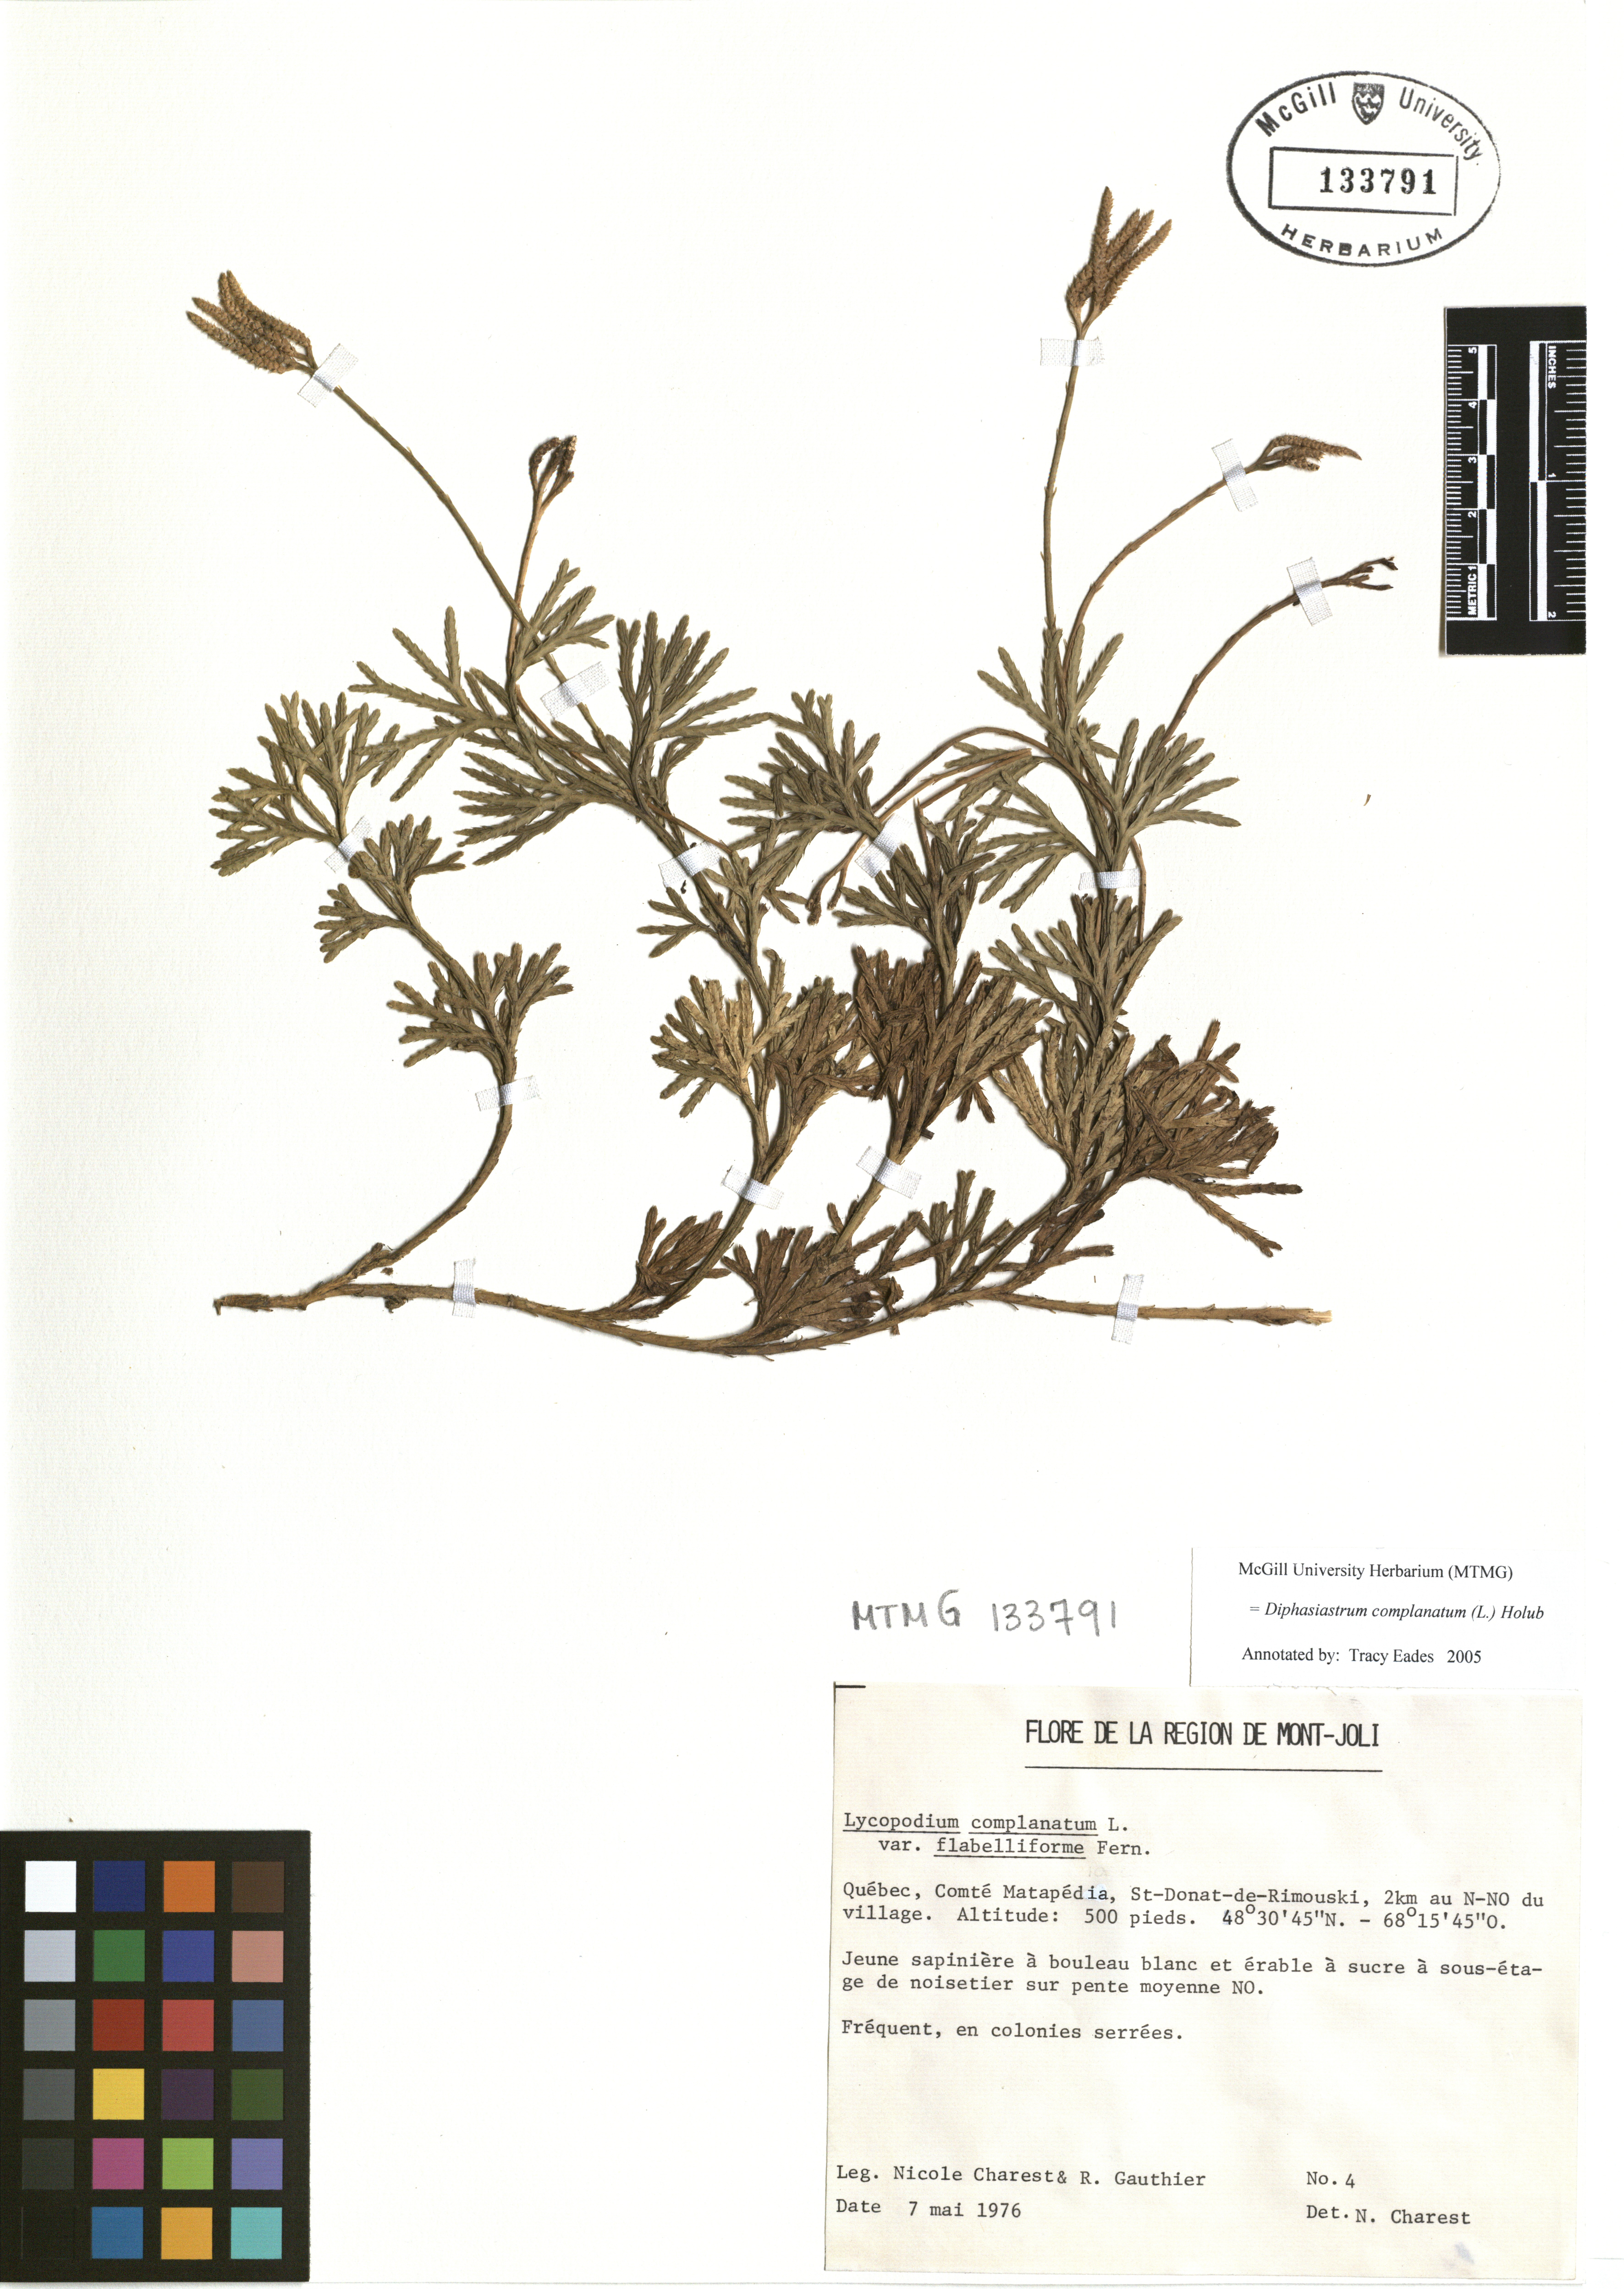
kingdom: Plantae
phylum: Tracheophyta
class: Lycopodiopsida
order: Lycopodiales
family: Lycopodiaceae
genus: Diphasiastrum
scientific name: Diphasiastrum complanatum
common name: Northern running-pine
